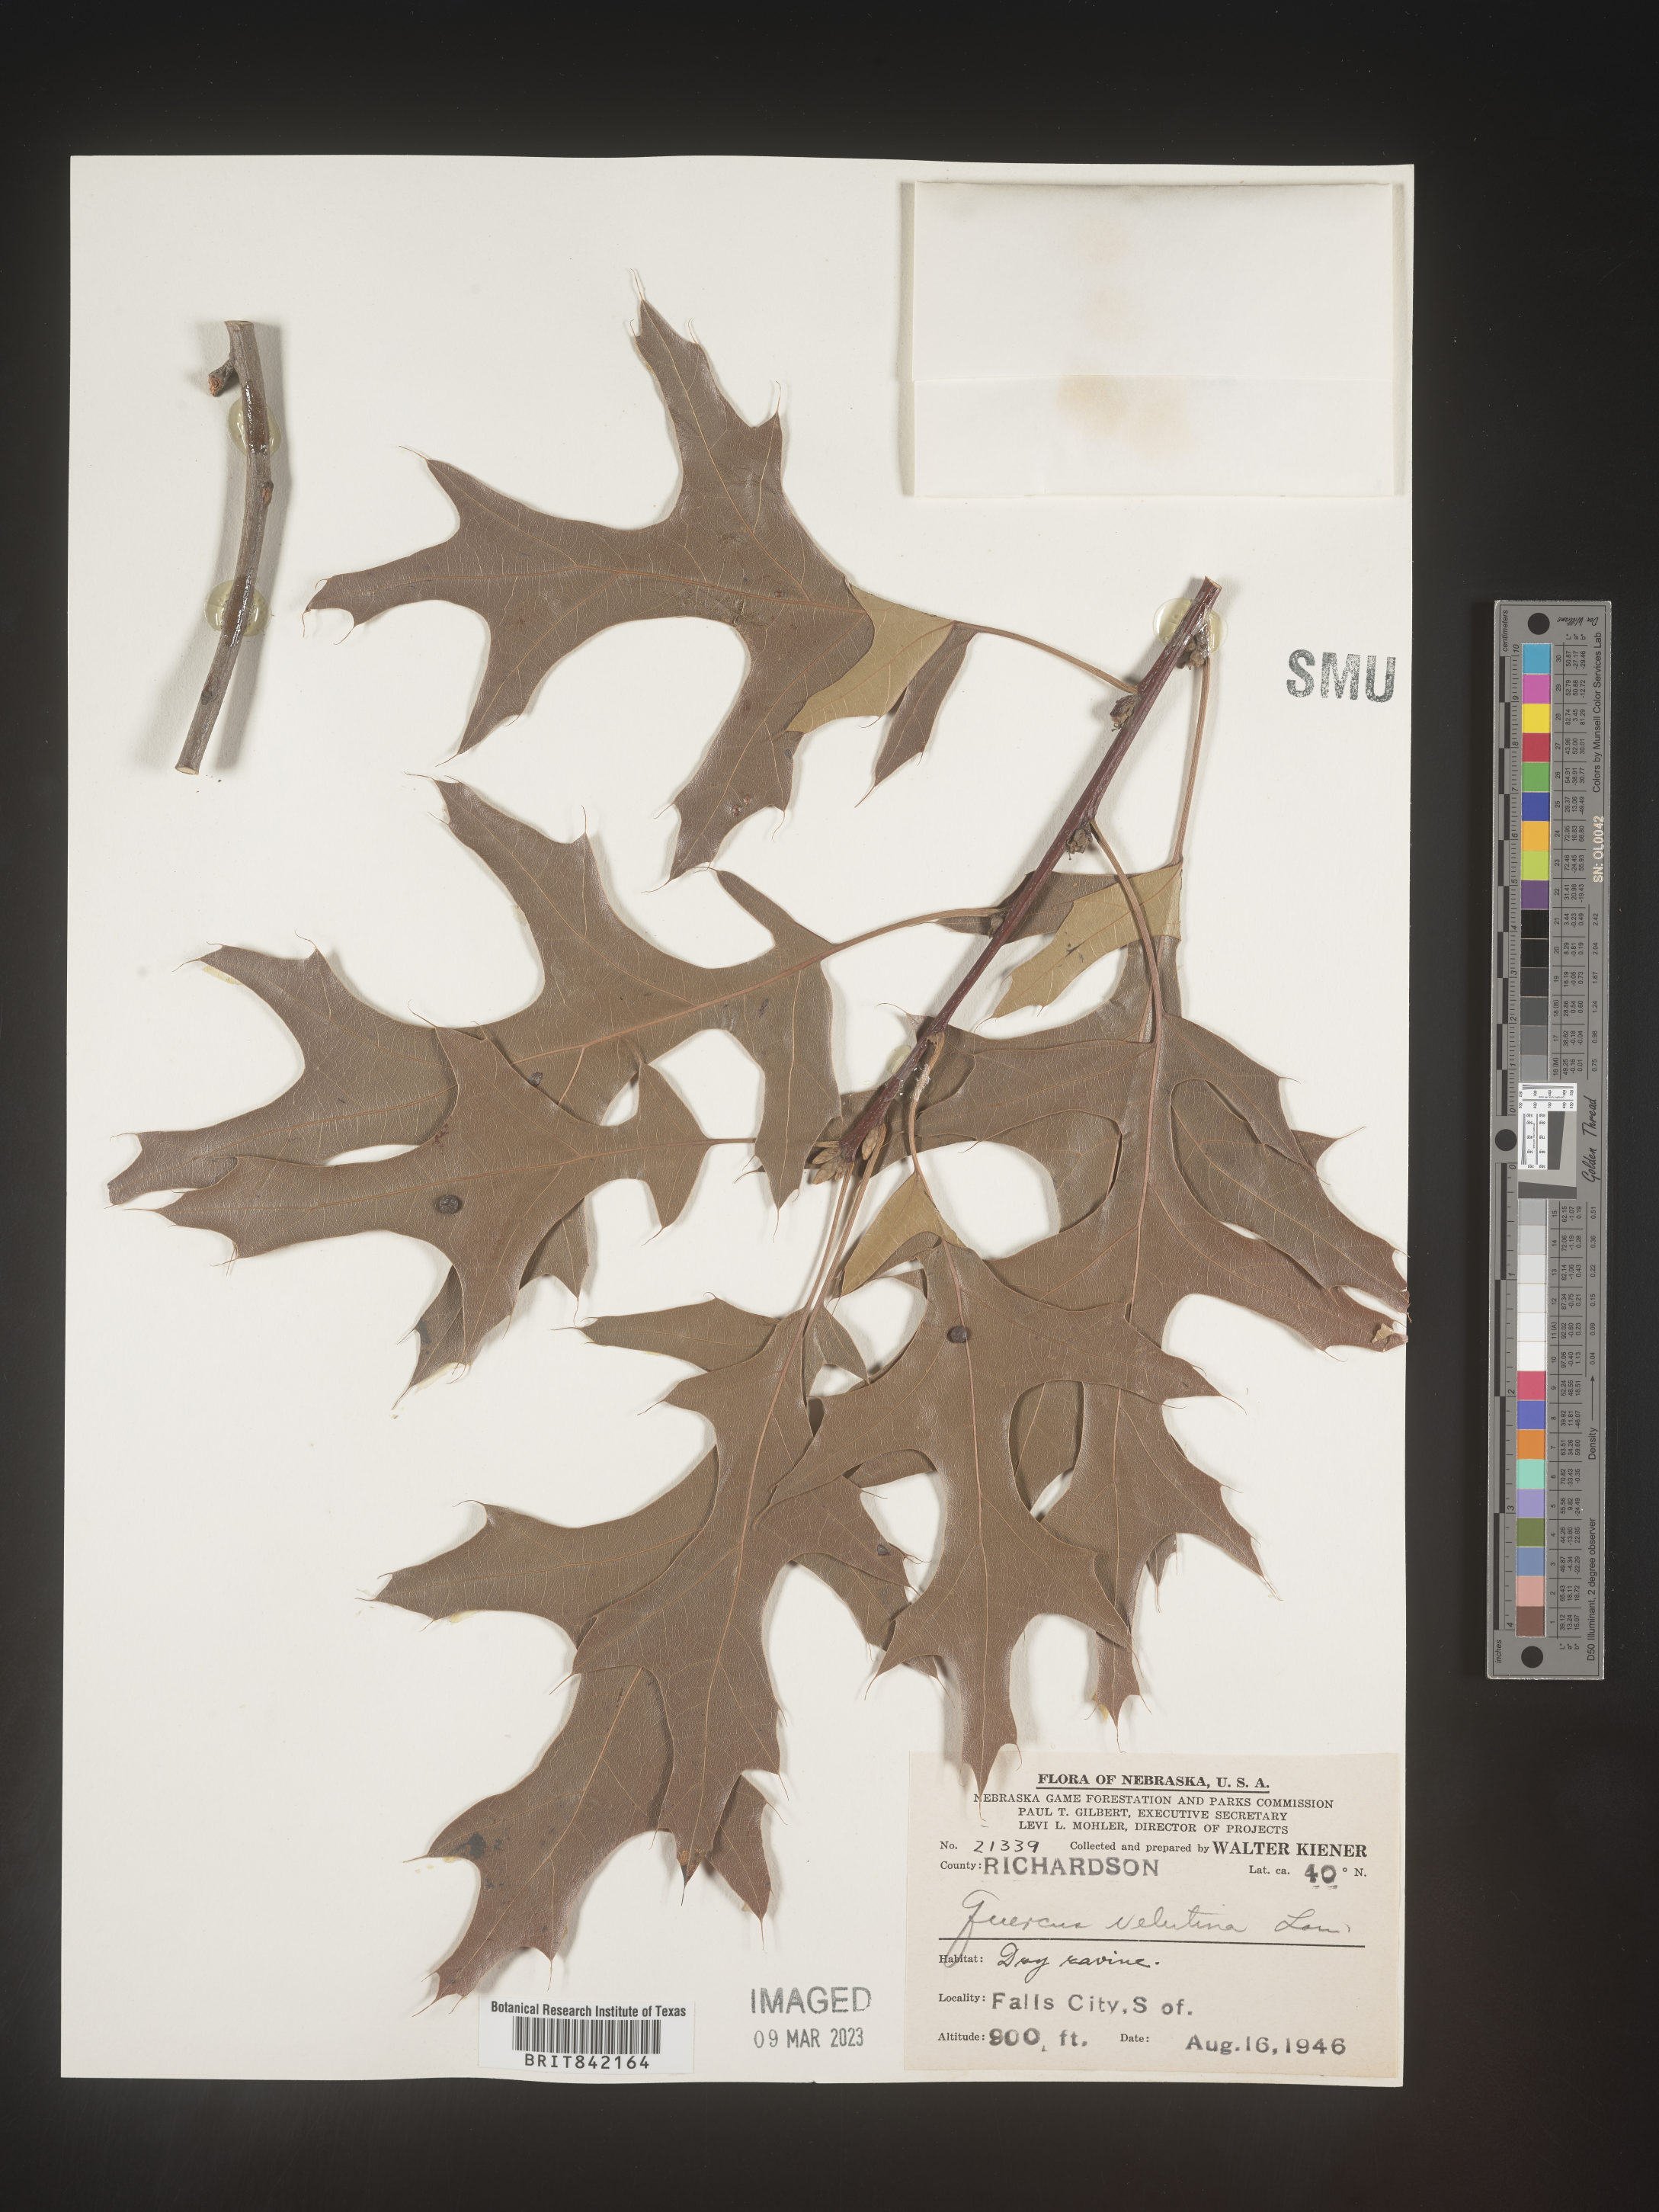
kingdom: Plantae
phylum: Tracheophyta
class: Magnoliopsida
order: Fagales
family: Fagaceae
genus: Quercus
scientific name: Quercus velutina
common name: Black oak
